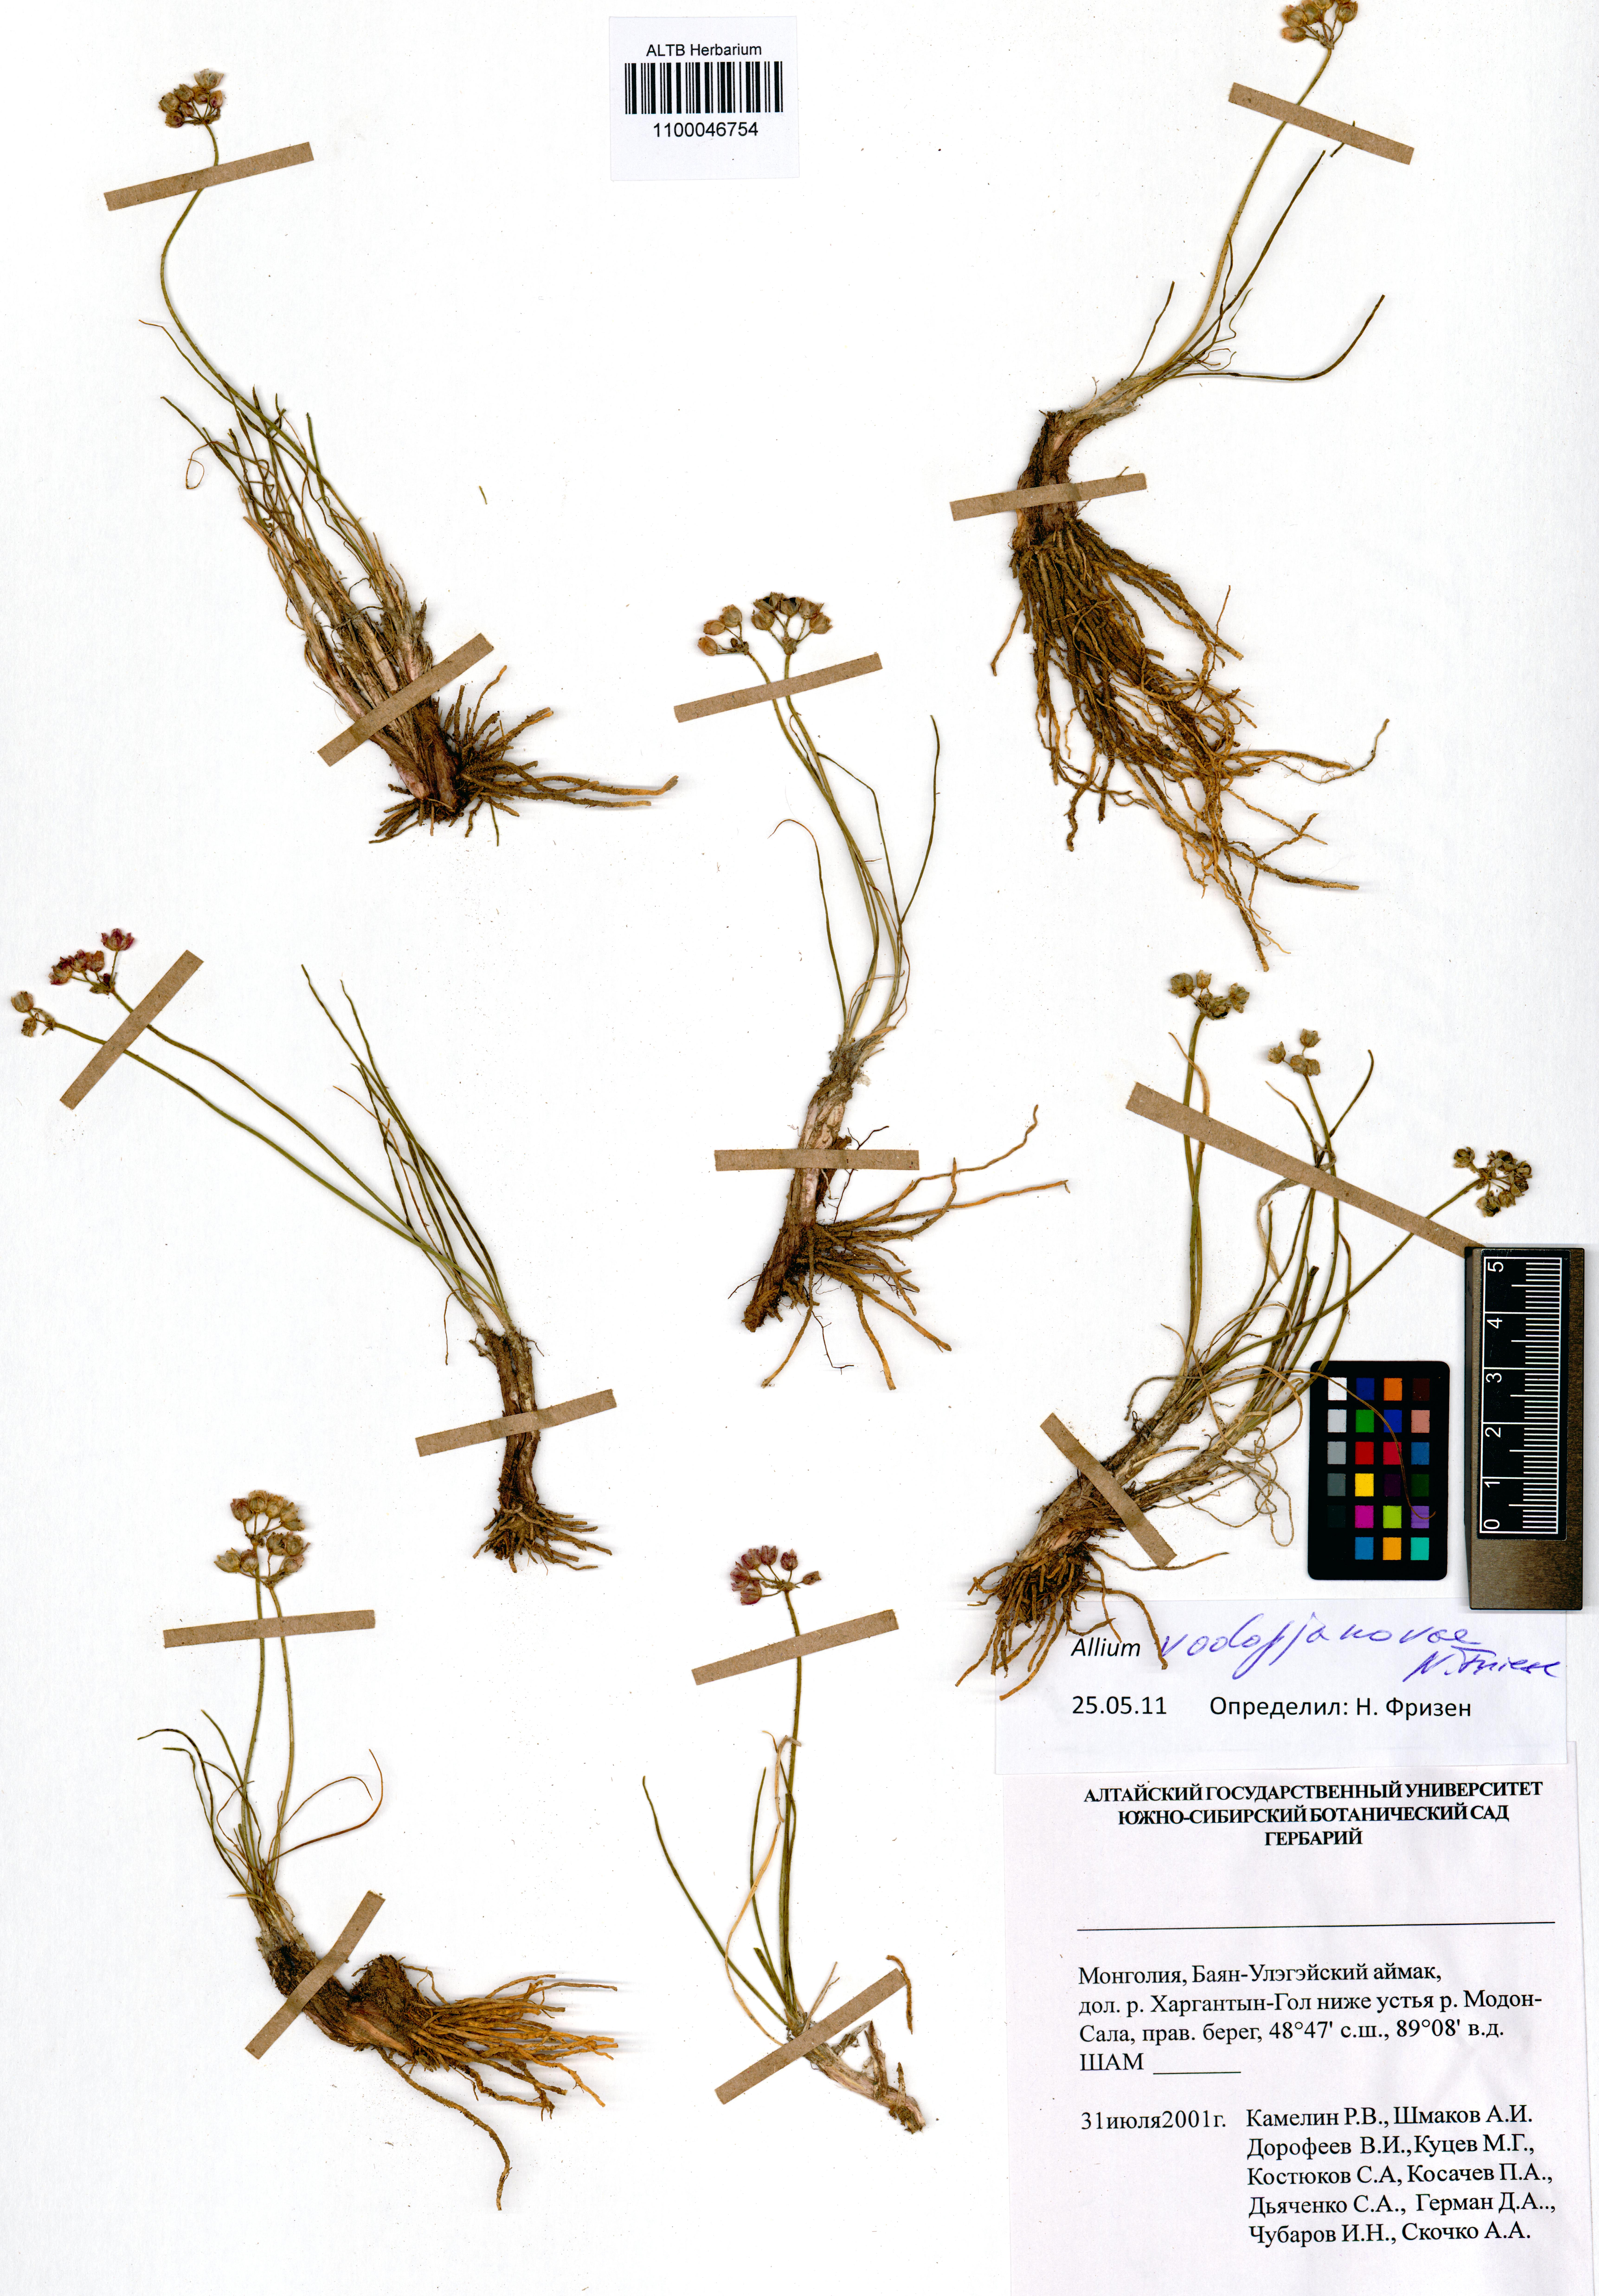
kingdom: Plantae
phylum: Tracheophyta
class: Liliopsida
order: Asparagales
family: Amaryllidaceae
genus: Allium
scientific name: Allium vodopjanovae
